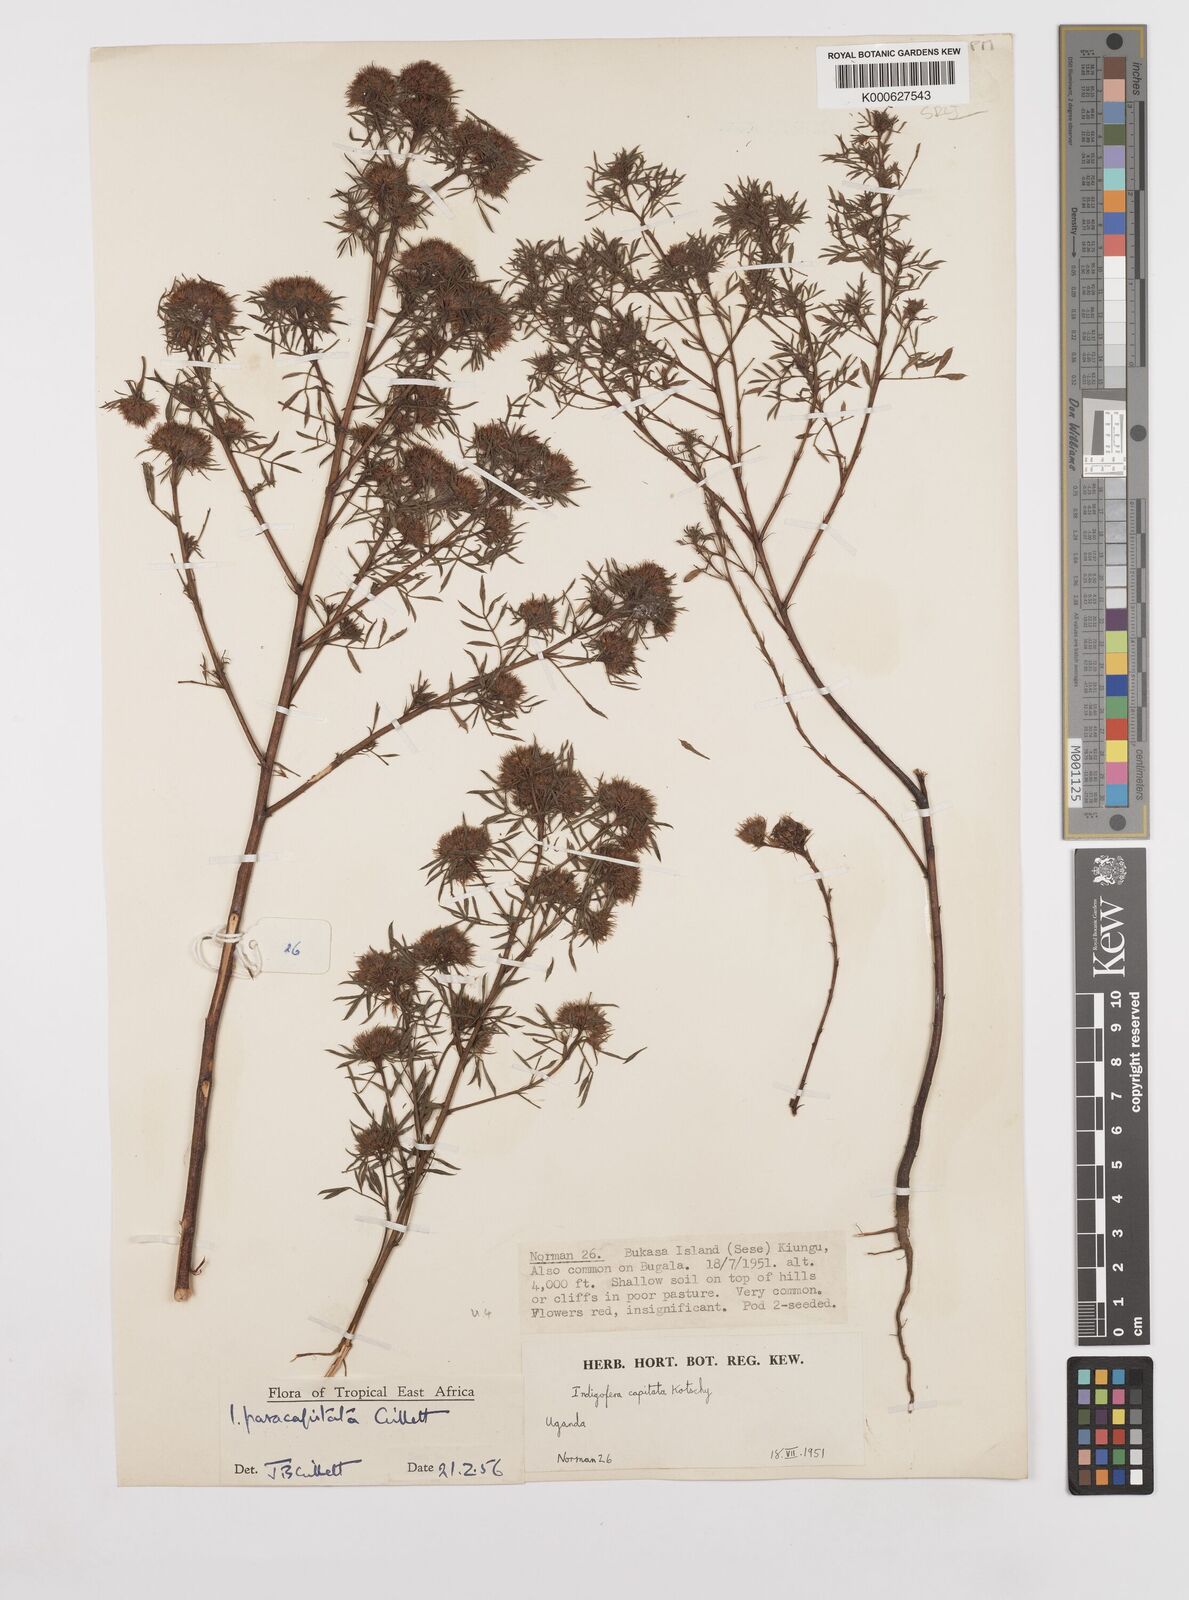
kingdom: Plantae
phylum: Tracheophyta
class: Magnoliopsida
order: Fabales
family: Fabaceae
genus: Indigofera
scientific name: Indigofera paracapitata
